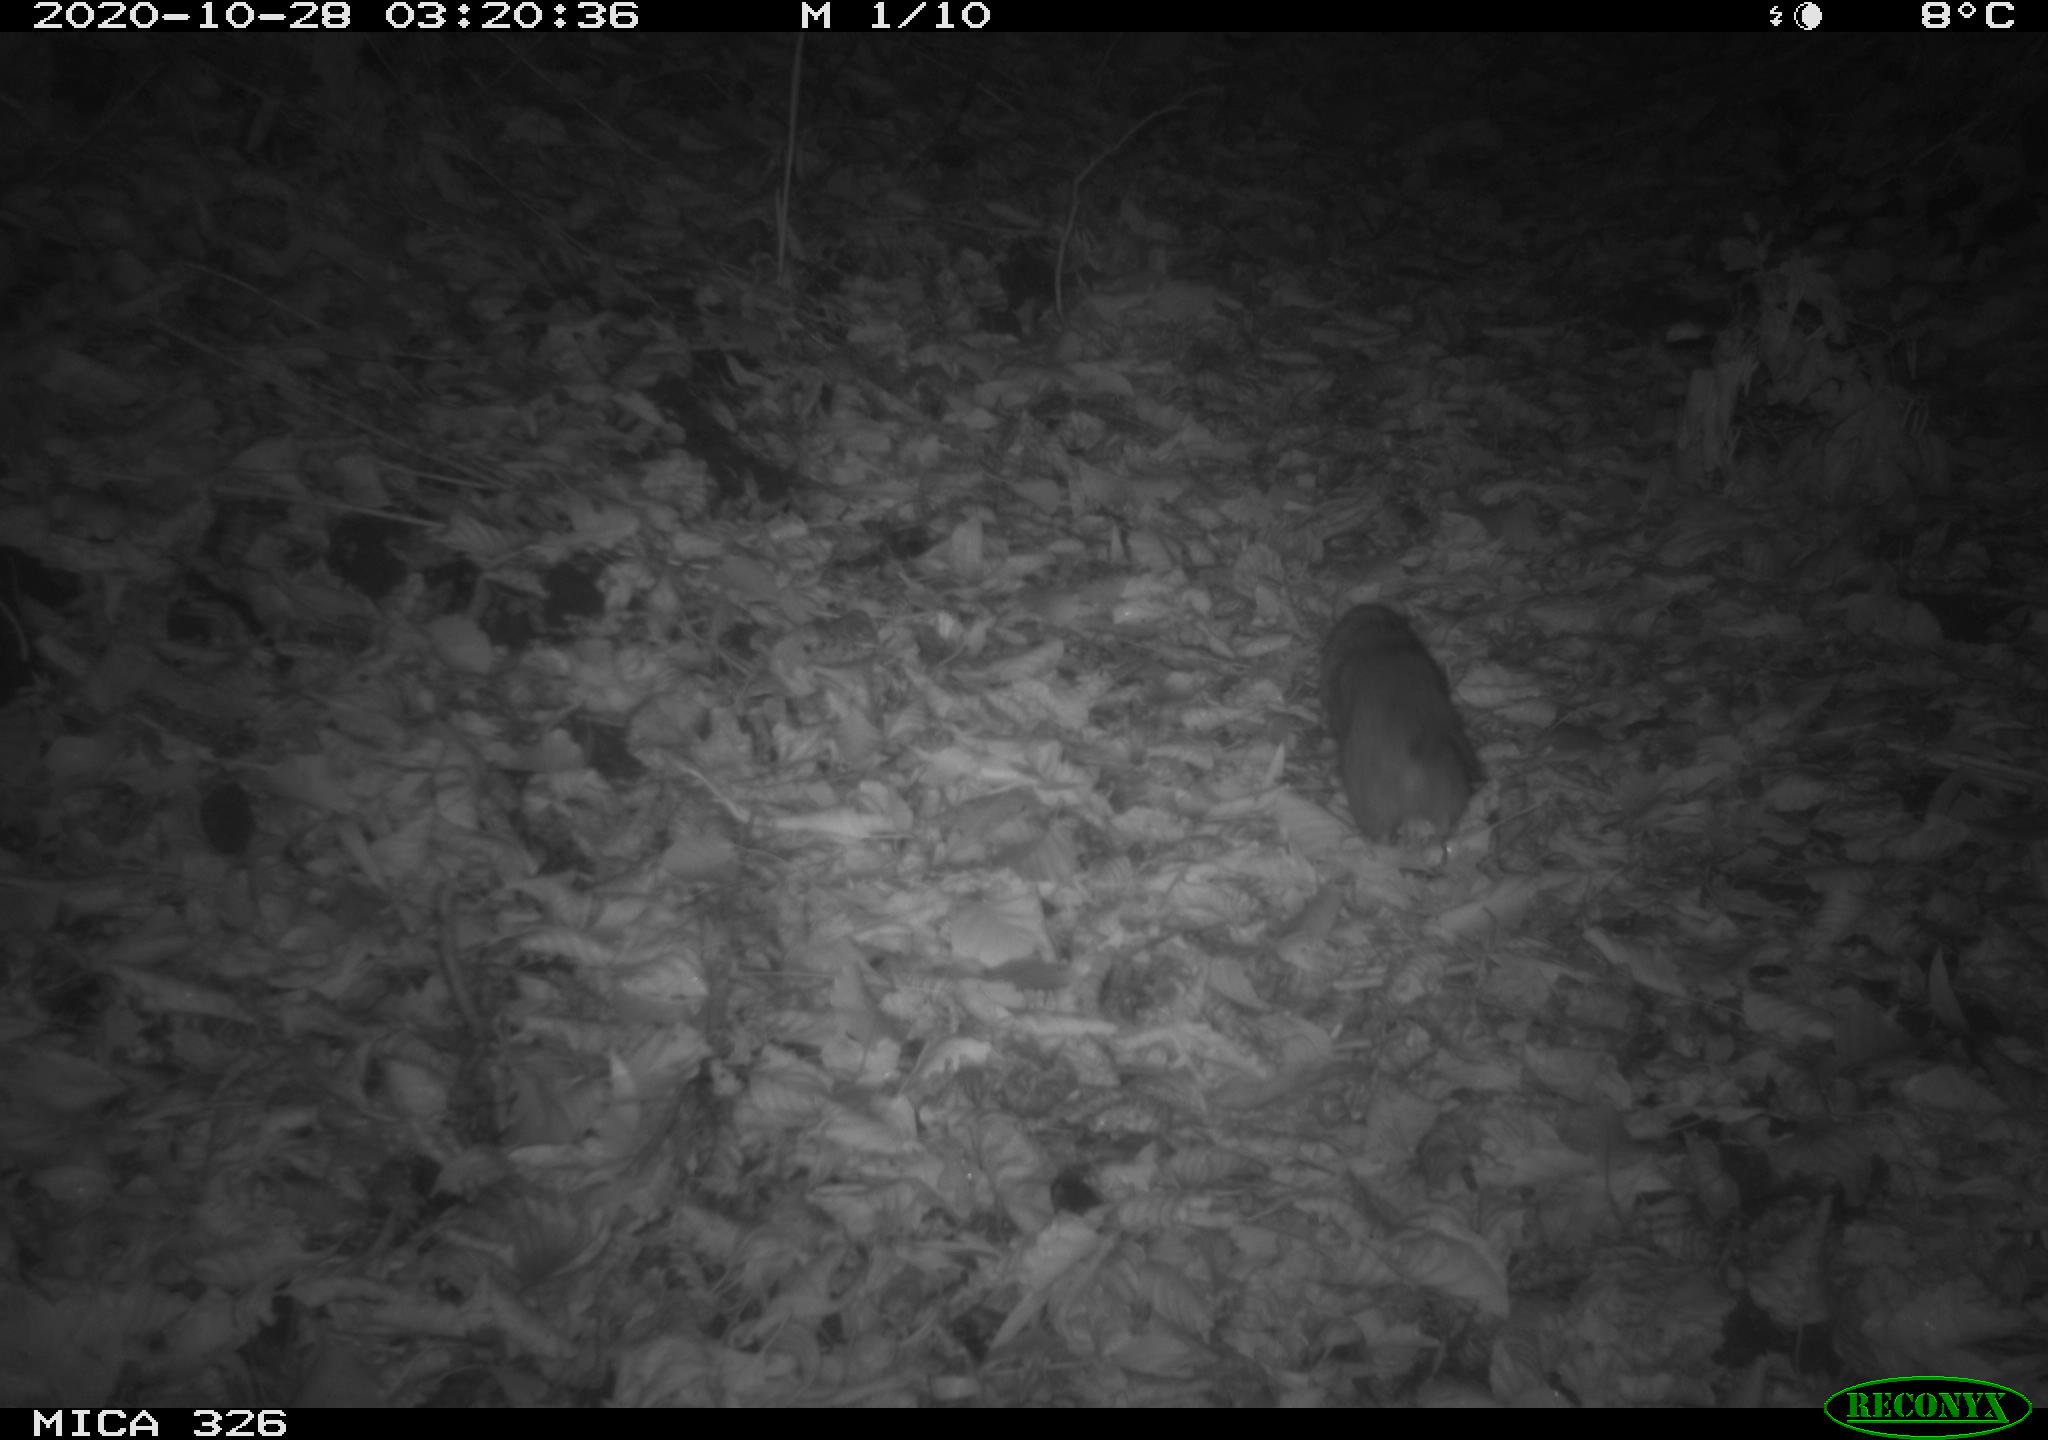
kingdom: Animalia
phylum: Chordata
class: Mammalia
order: Rodentia
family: Muridae
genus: Rattus
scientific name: Rattus norvegicus
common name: Brown rat
